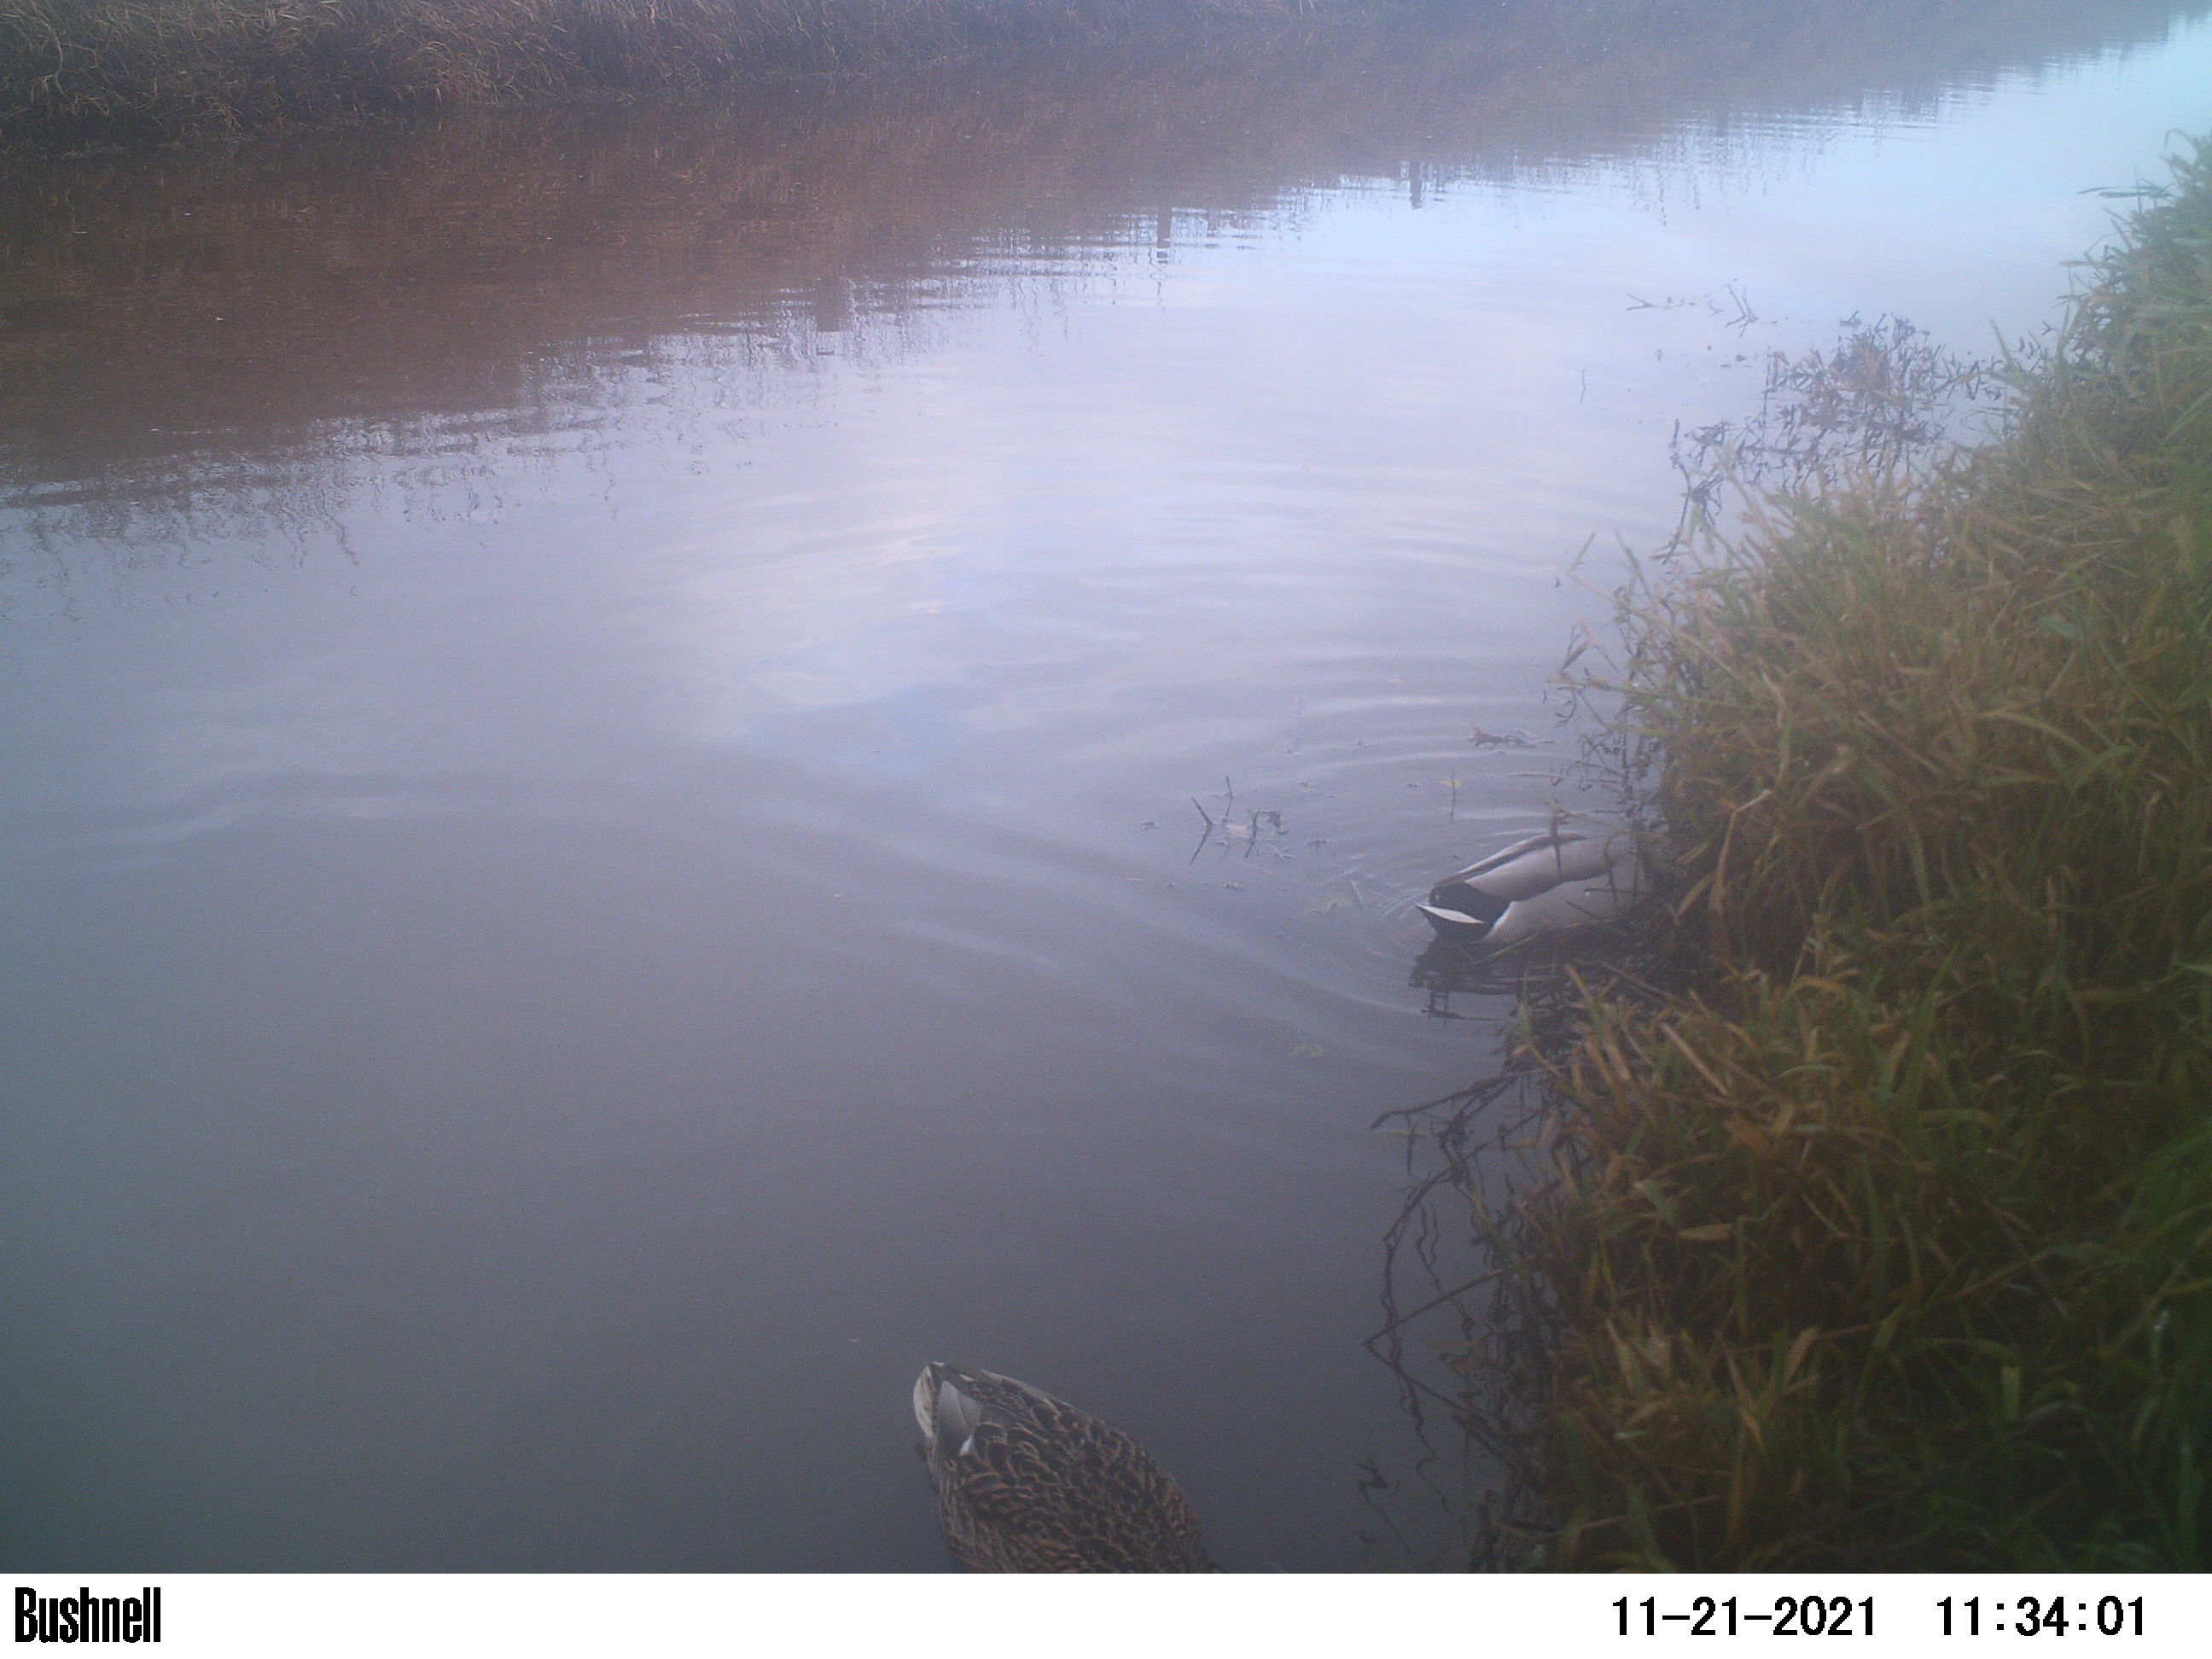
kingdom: Animalia
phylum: Chordata
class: Aves
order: Anseriformes
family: Anatidae
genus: Anas
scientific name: Anas
